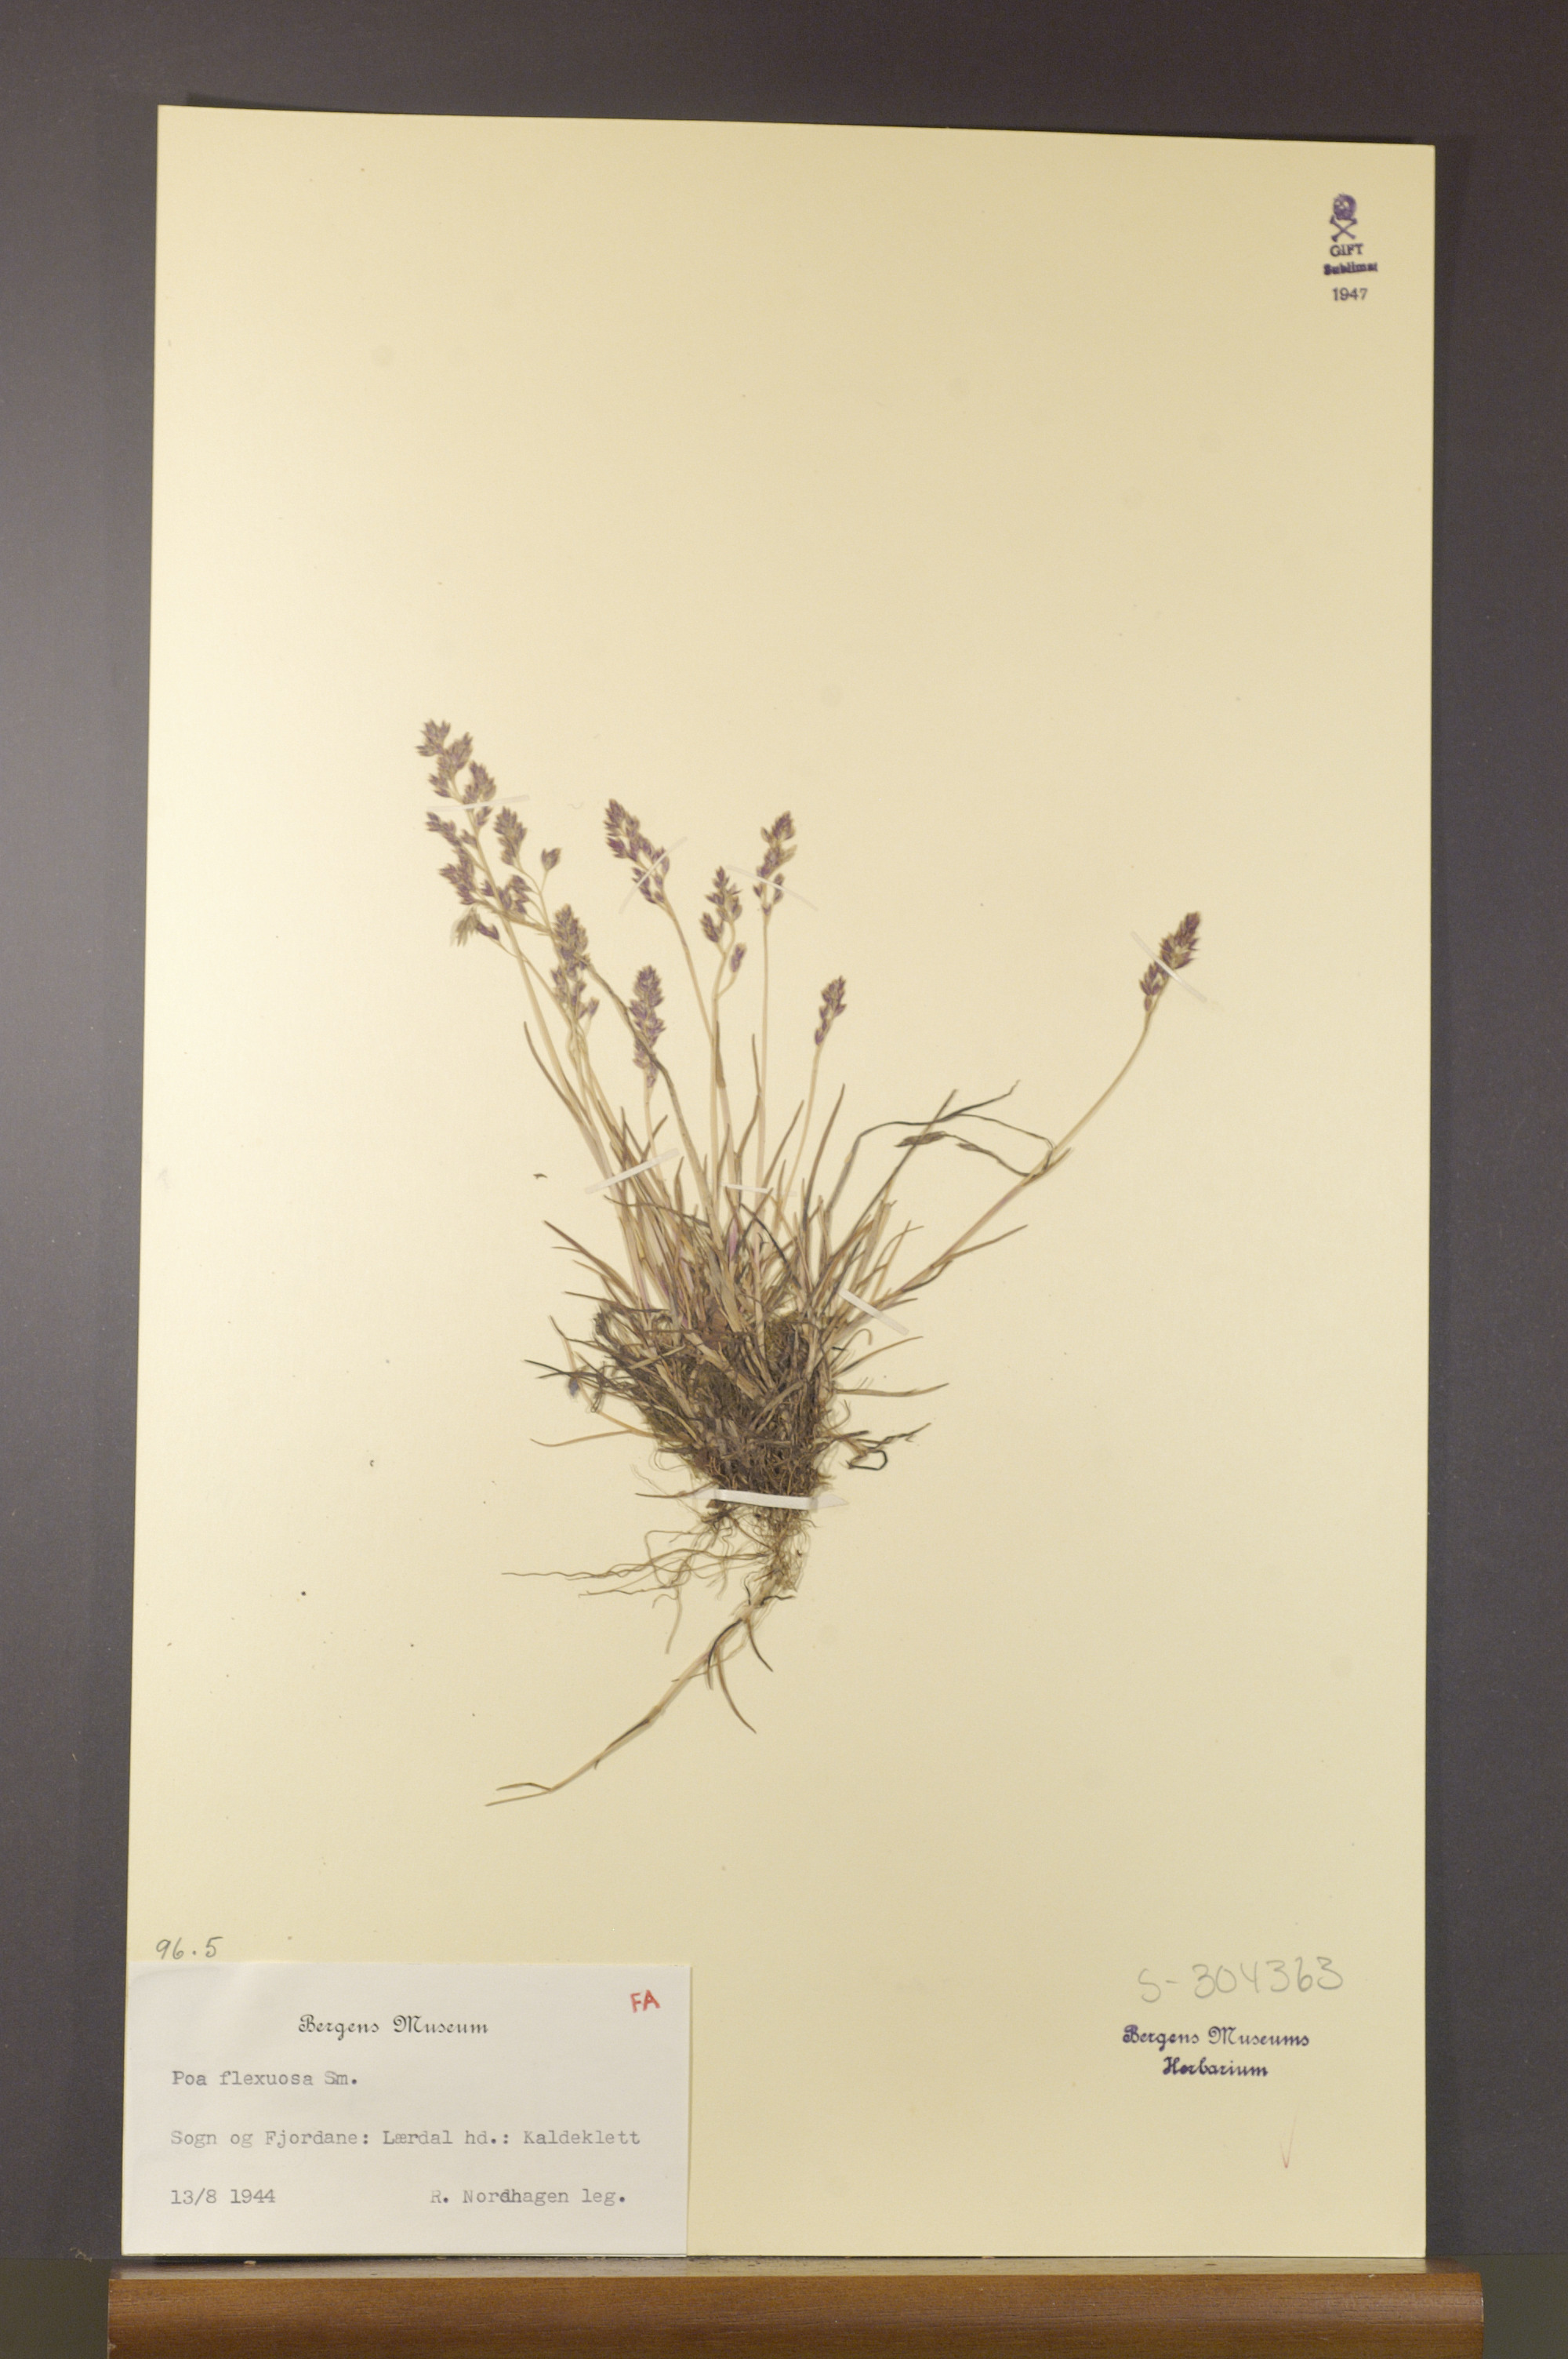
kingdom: Plantae
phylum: Tracheophyta
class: Liliopsida
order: Poales
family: Poaceae
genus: Poa
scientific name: Poa flexuosa
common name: Wavy meadow-grass
